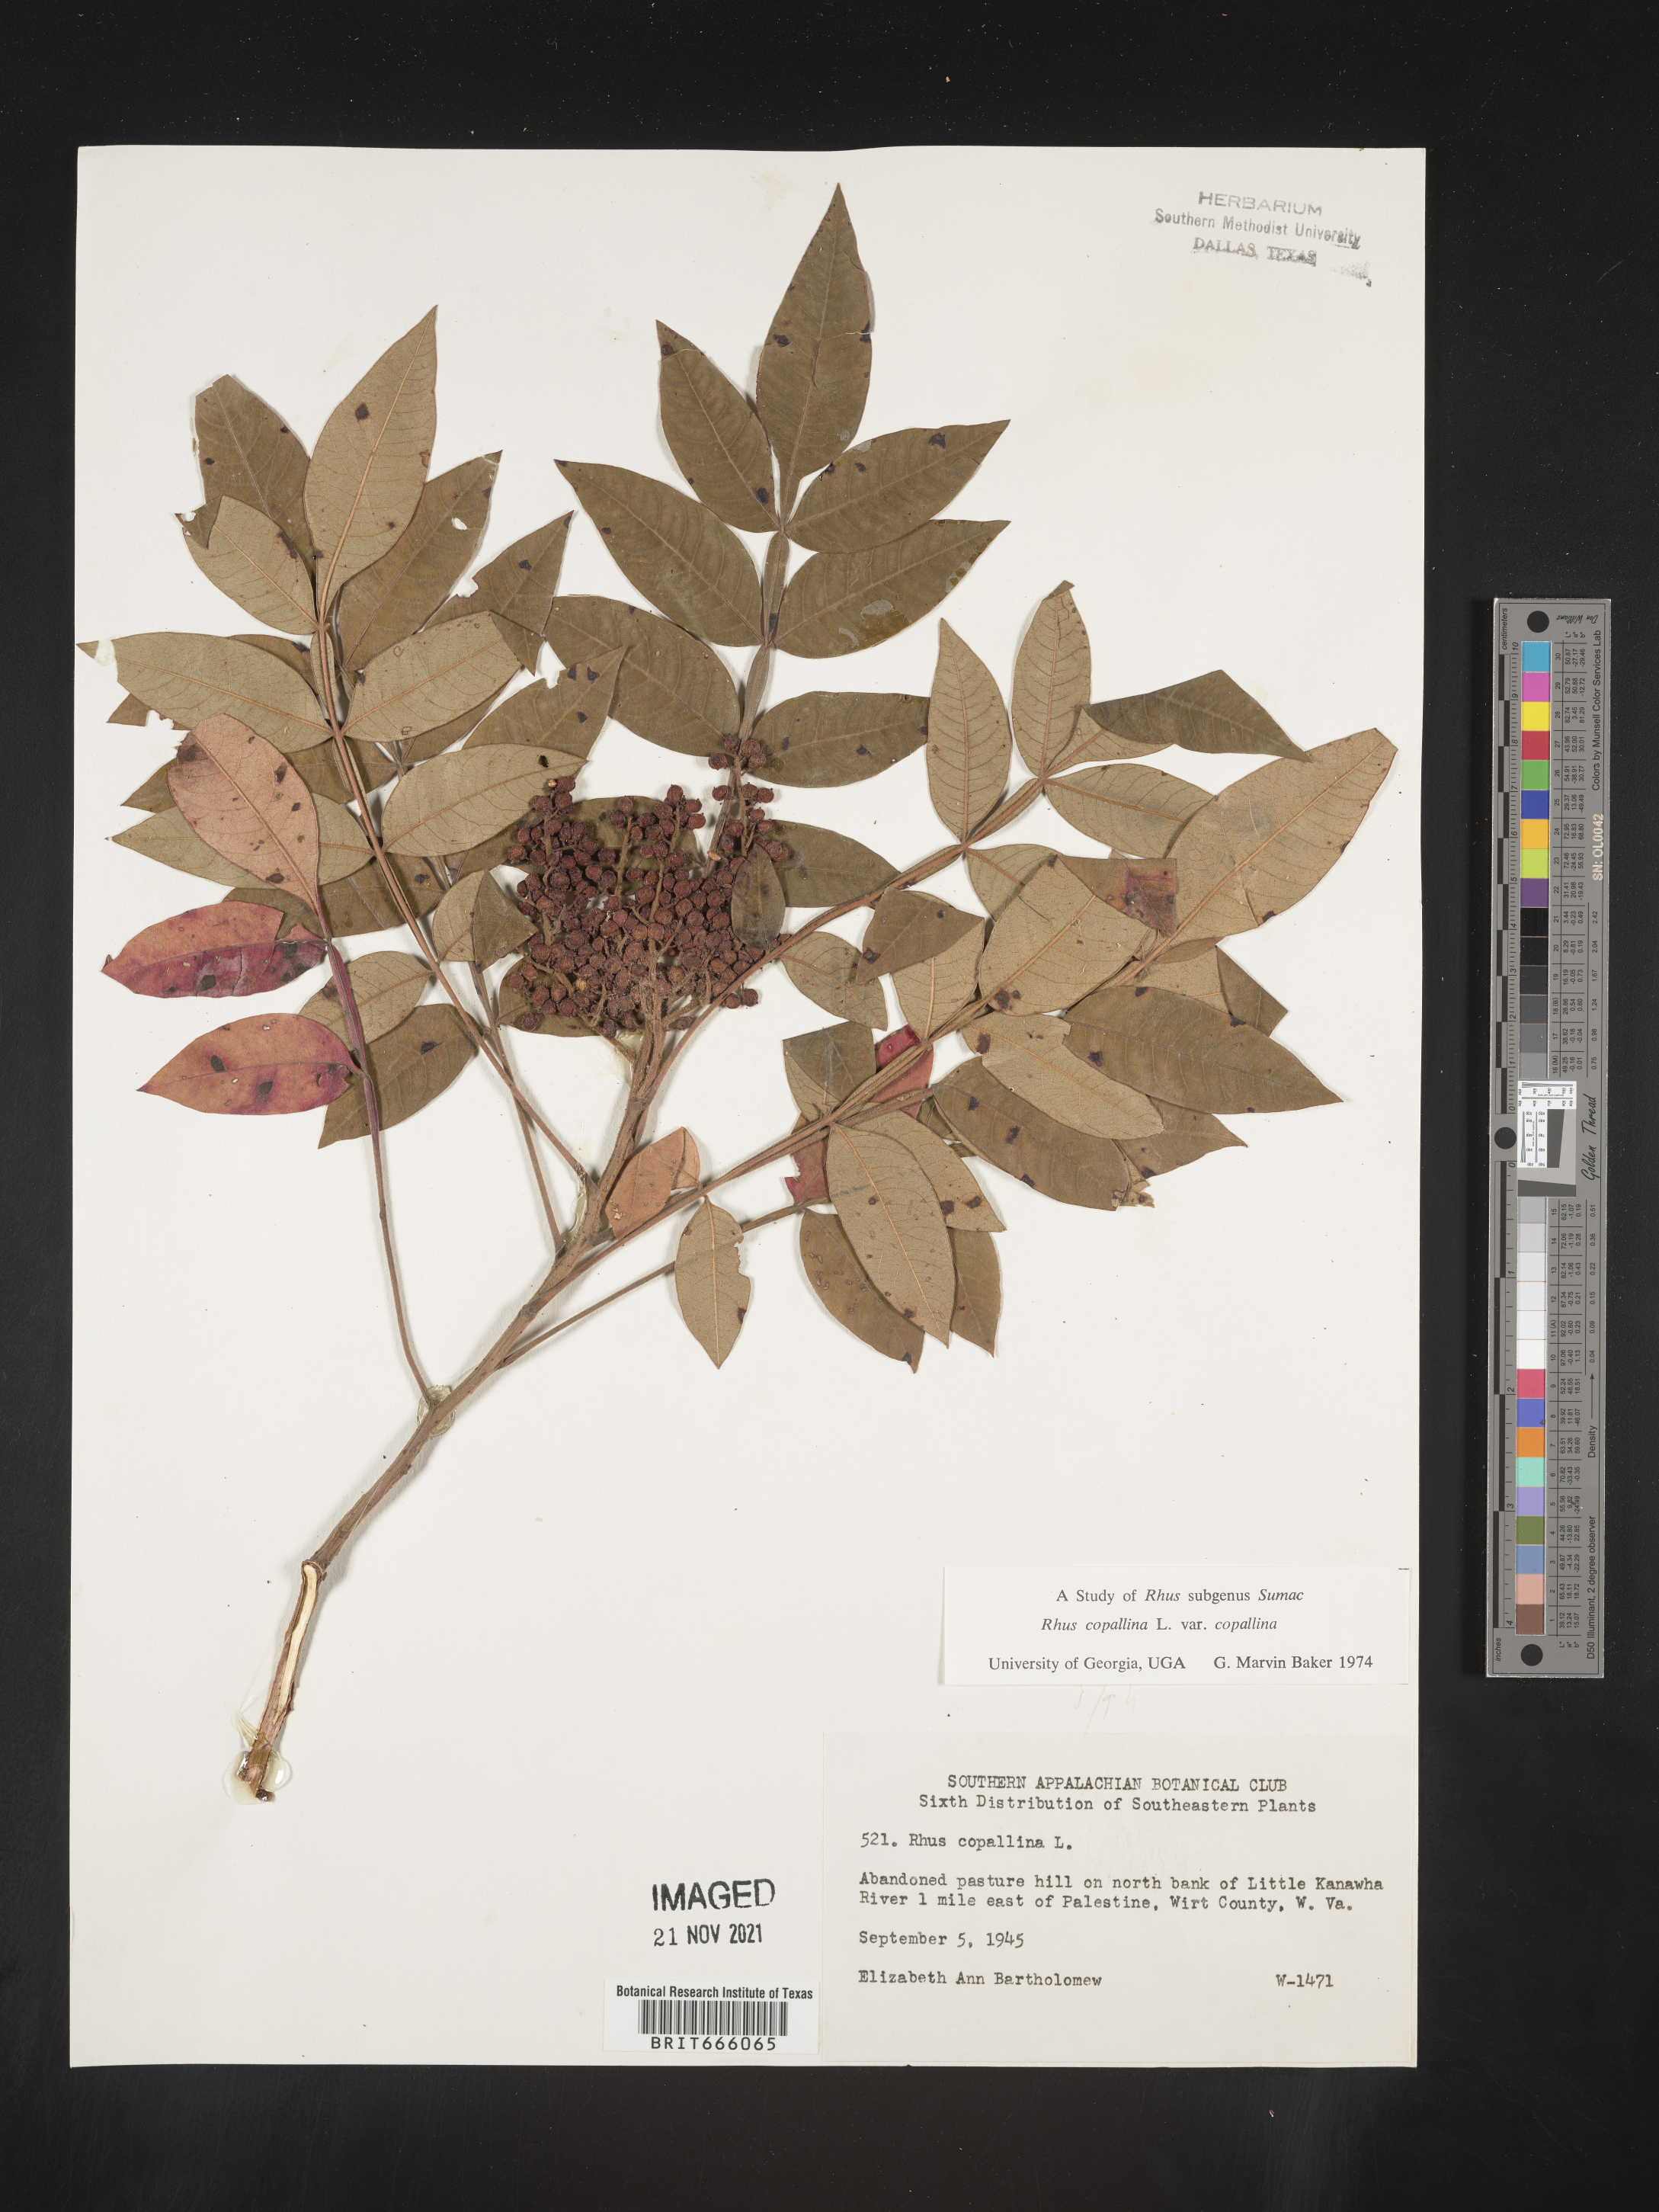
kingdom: Plantae
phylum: Tracheophyta
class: Magnoliopsida
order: Sapindales
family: Anacardiaceae
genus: Rhus
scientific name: Rhus copallina
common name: Shining sumac
